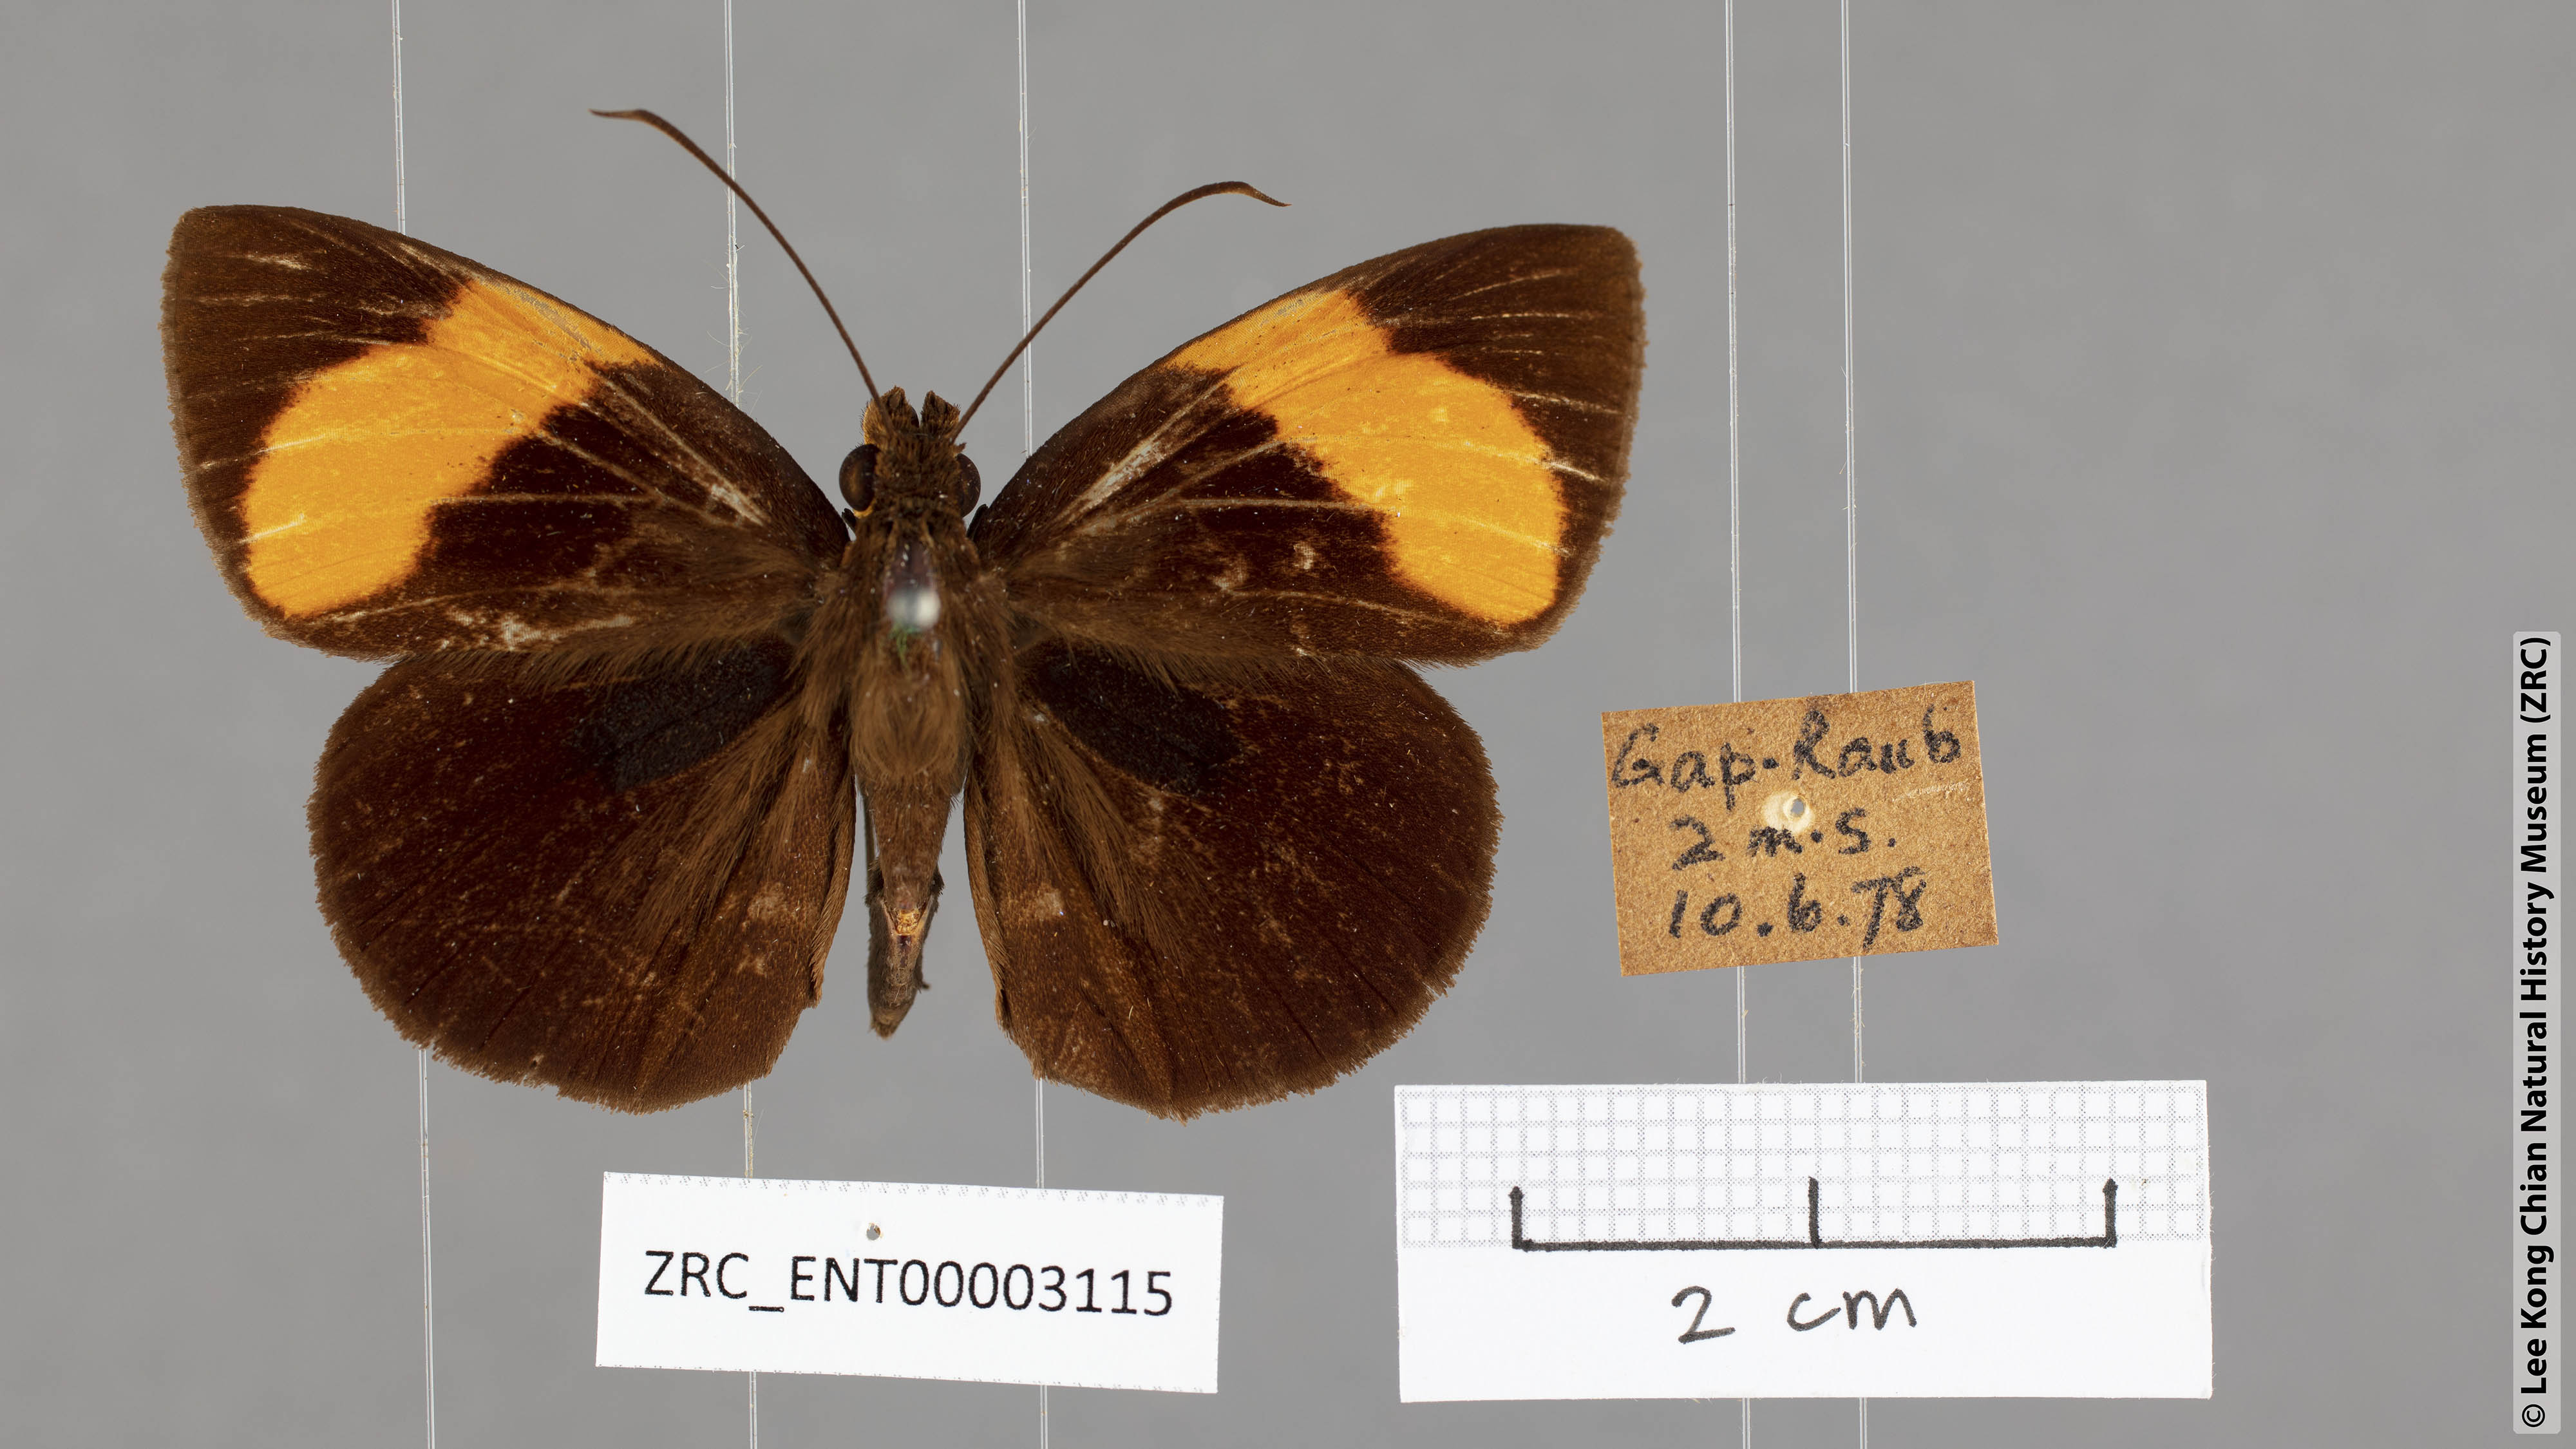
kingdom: Animalia
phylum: Arthropoda
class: Insecta
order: Lepidoptera
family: Hesperiidae
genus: Ancistroides
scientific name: Ancistroides armatus
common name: Red demon
